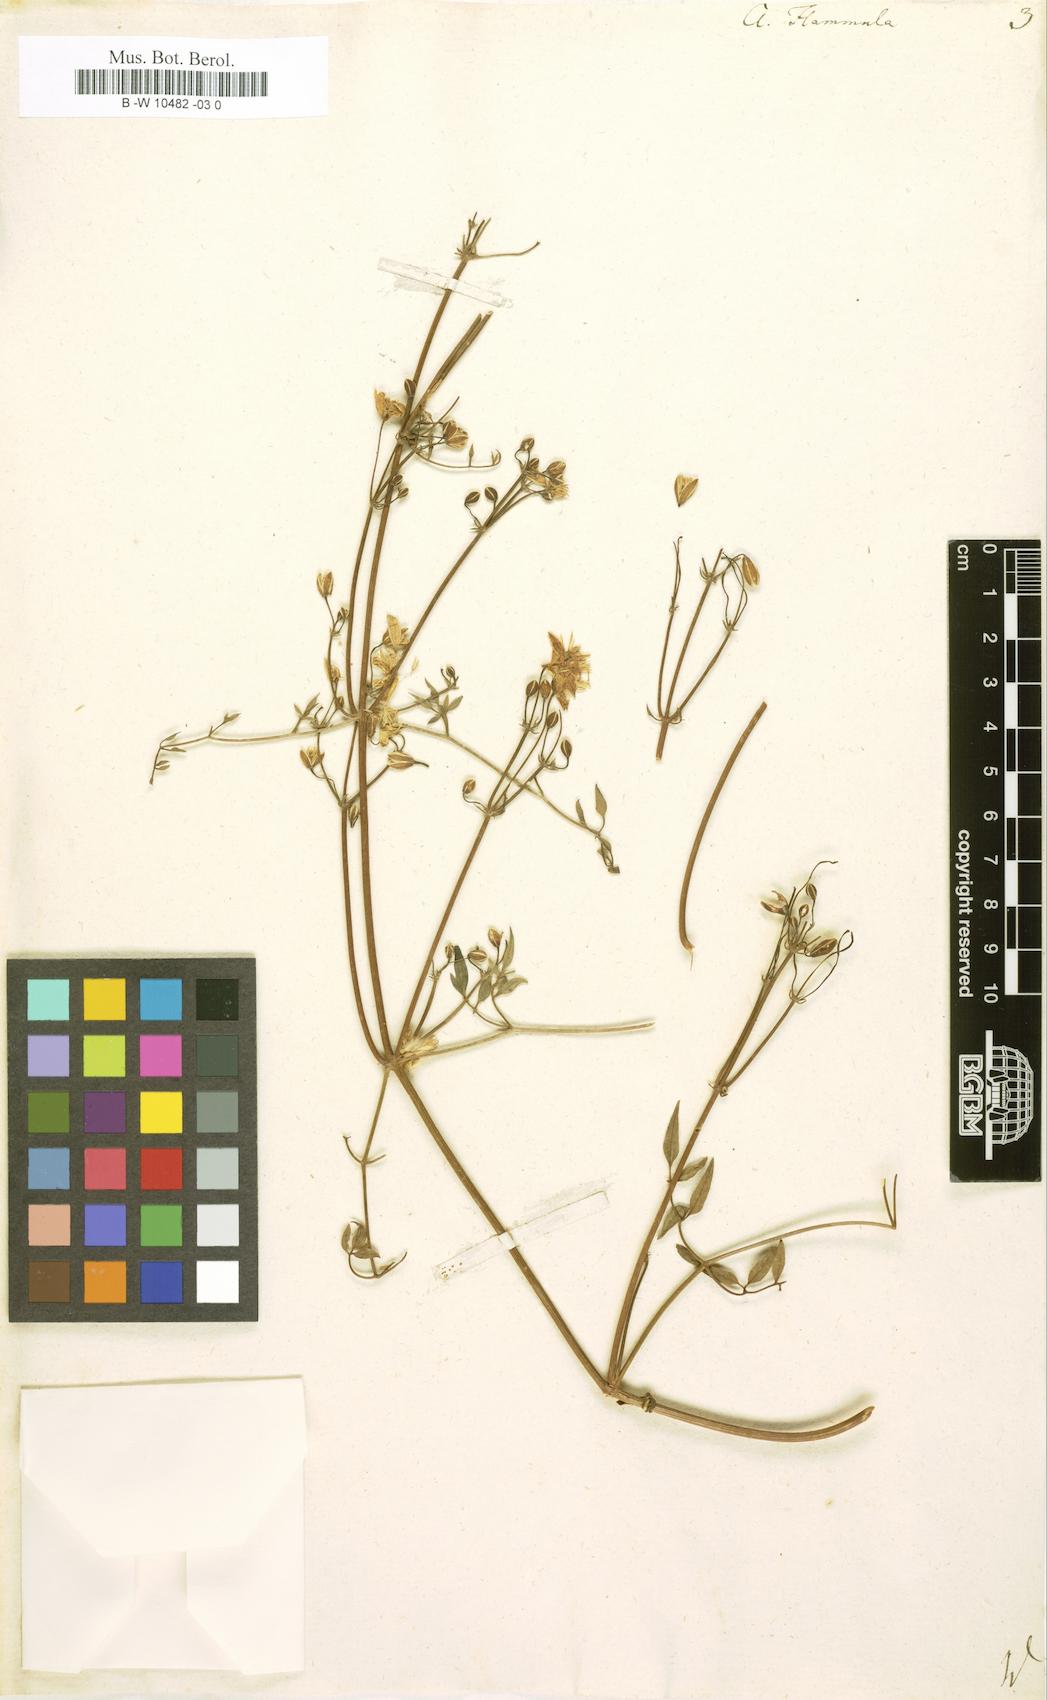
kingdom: Plantae
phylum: Tracheophyta
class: Magnoliopsida
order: Ranunculales
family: Ranunculaceae
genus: Clematis
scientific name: Clematis flammula
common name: Virgin's-bower
